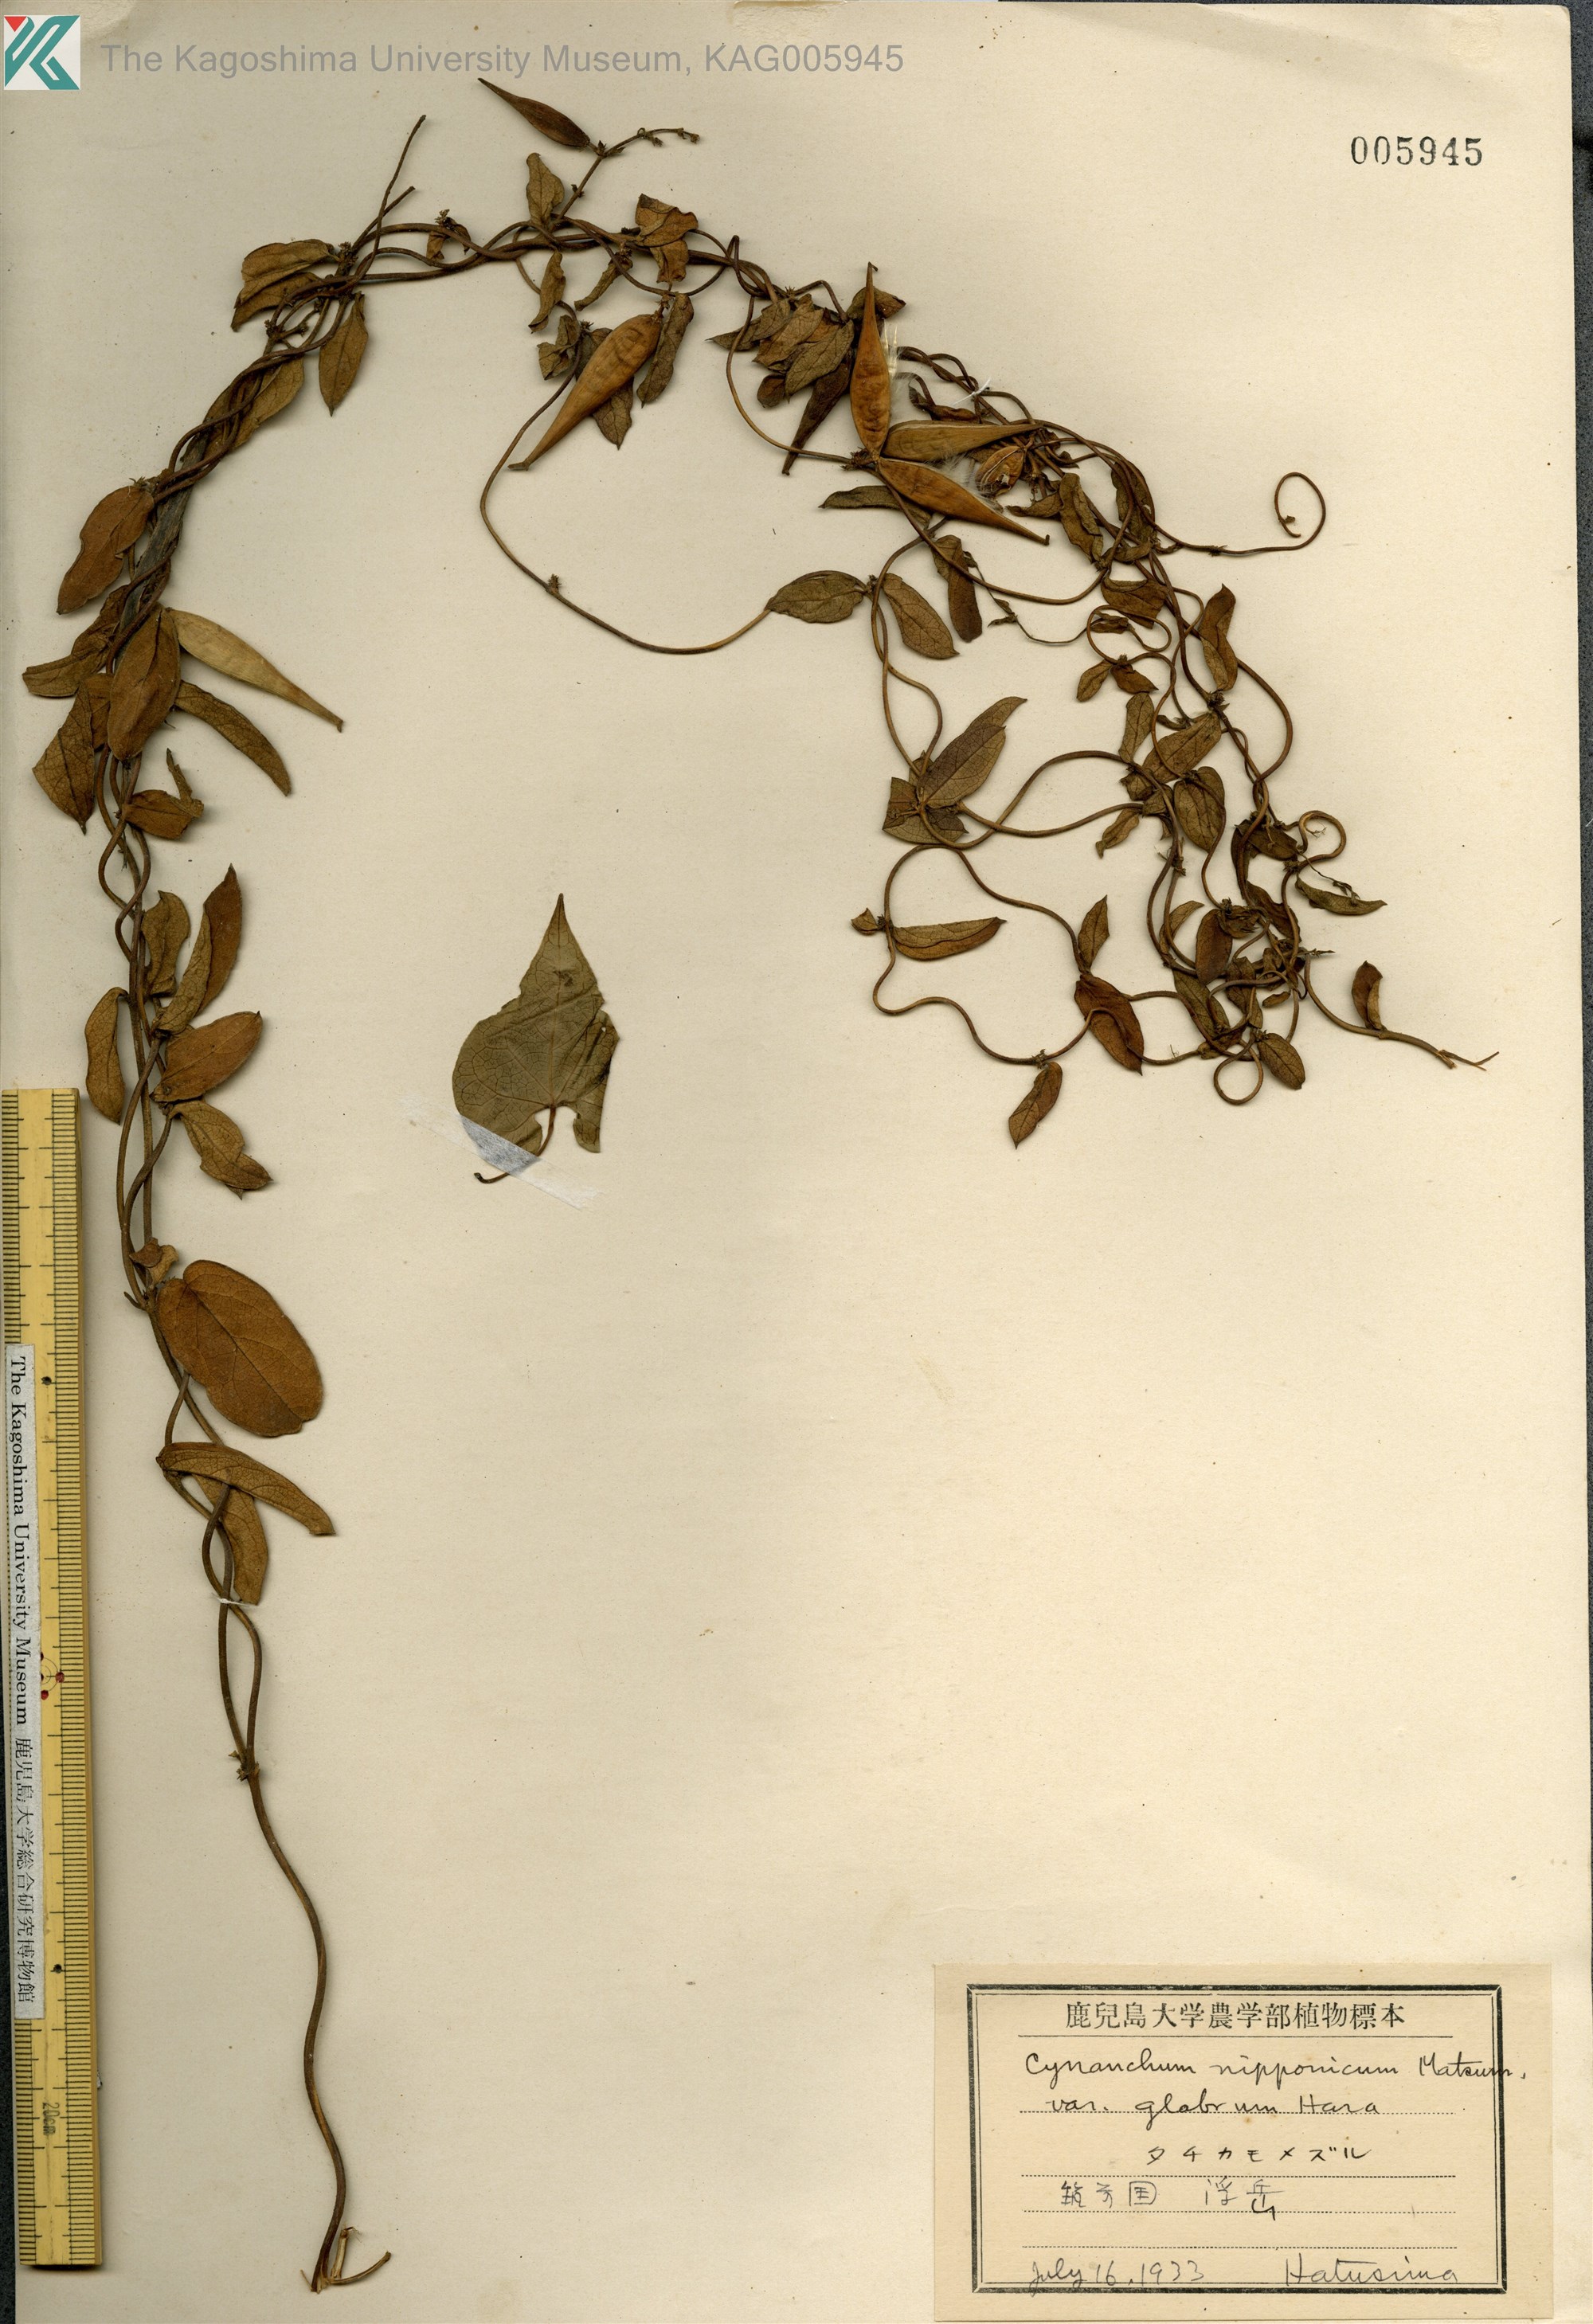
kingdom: Plantae
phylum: Tracheophyta
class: Magnoliopsida
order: Gentianales
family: Apocynaceae
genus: Vincetoxicum
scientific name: Vincetoxicum nipponicum
